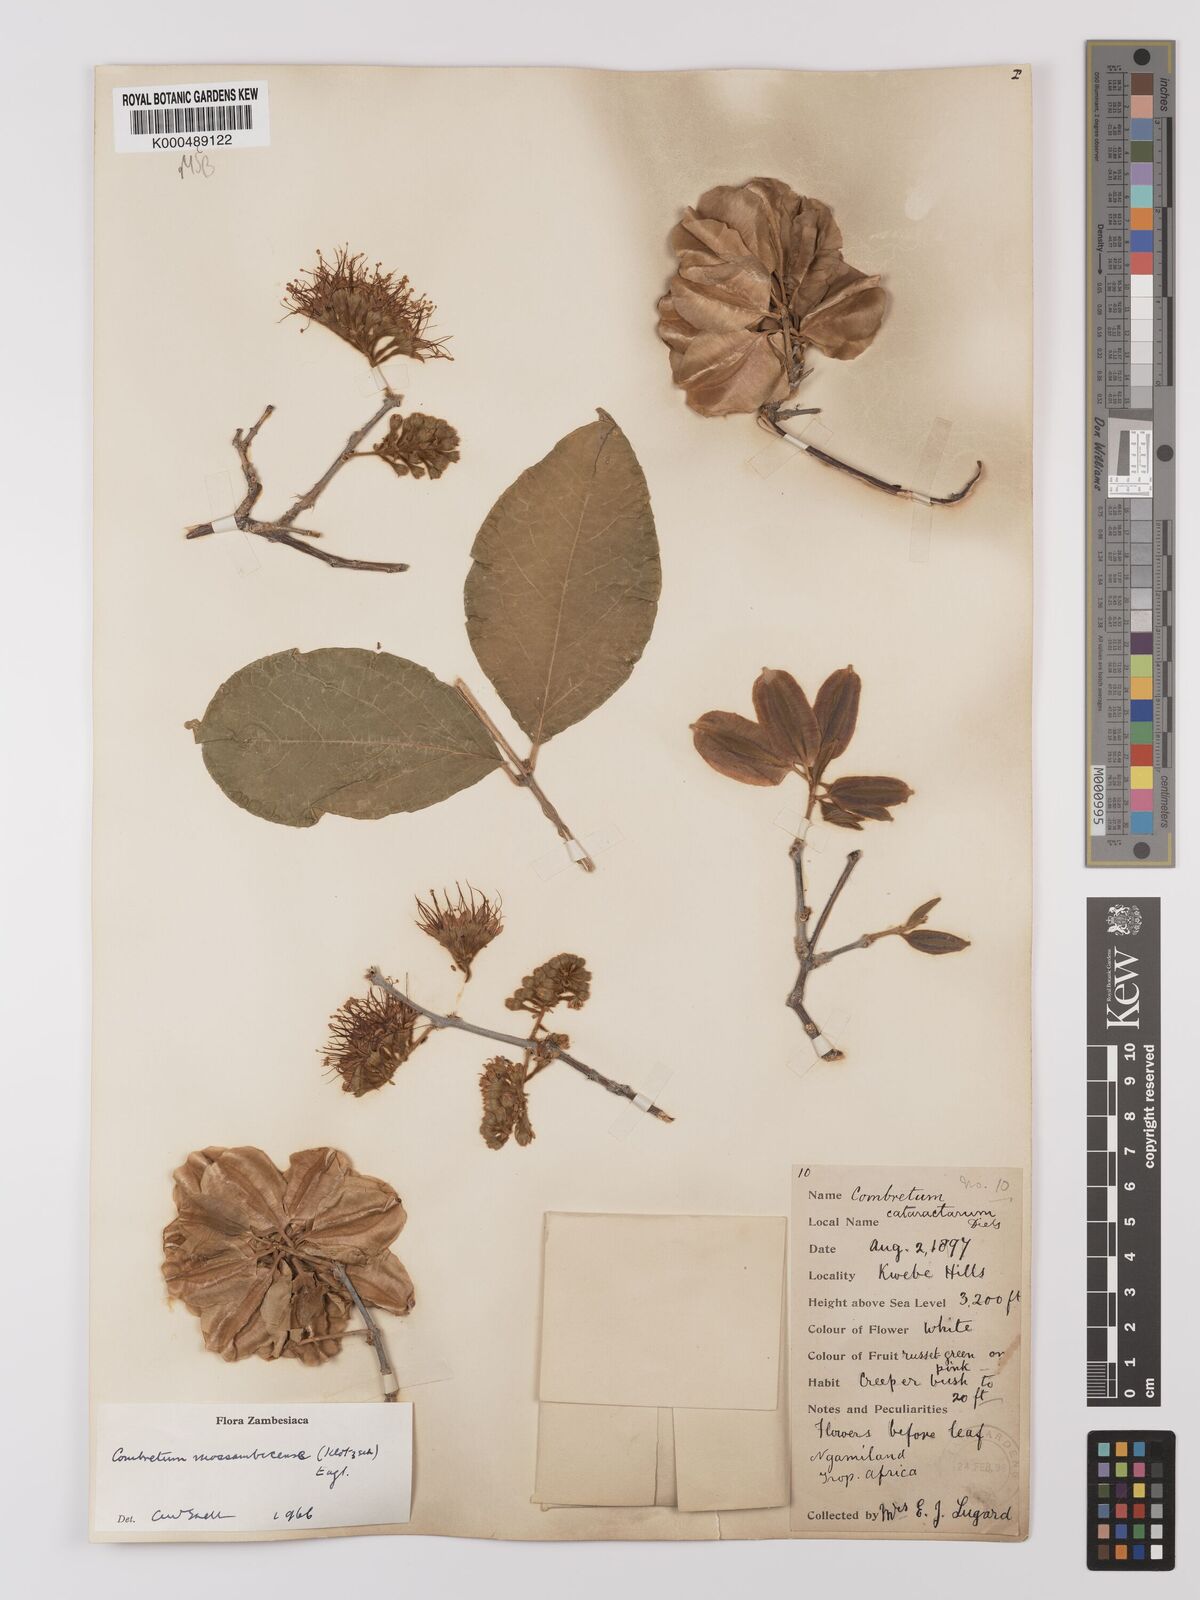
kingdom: Plantae
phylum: Tracheophyta
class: Magnoliopsida
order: Myrtales
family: Combretaceae
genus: Combretum
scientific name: Combretum mossambicense
